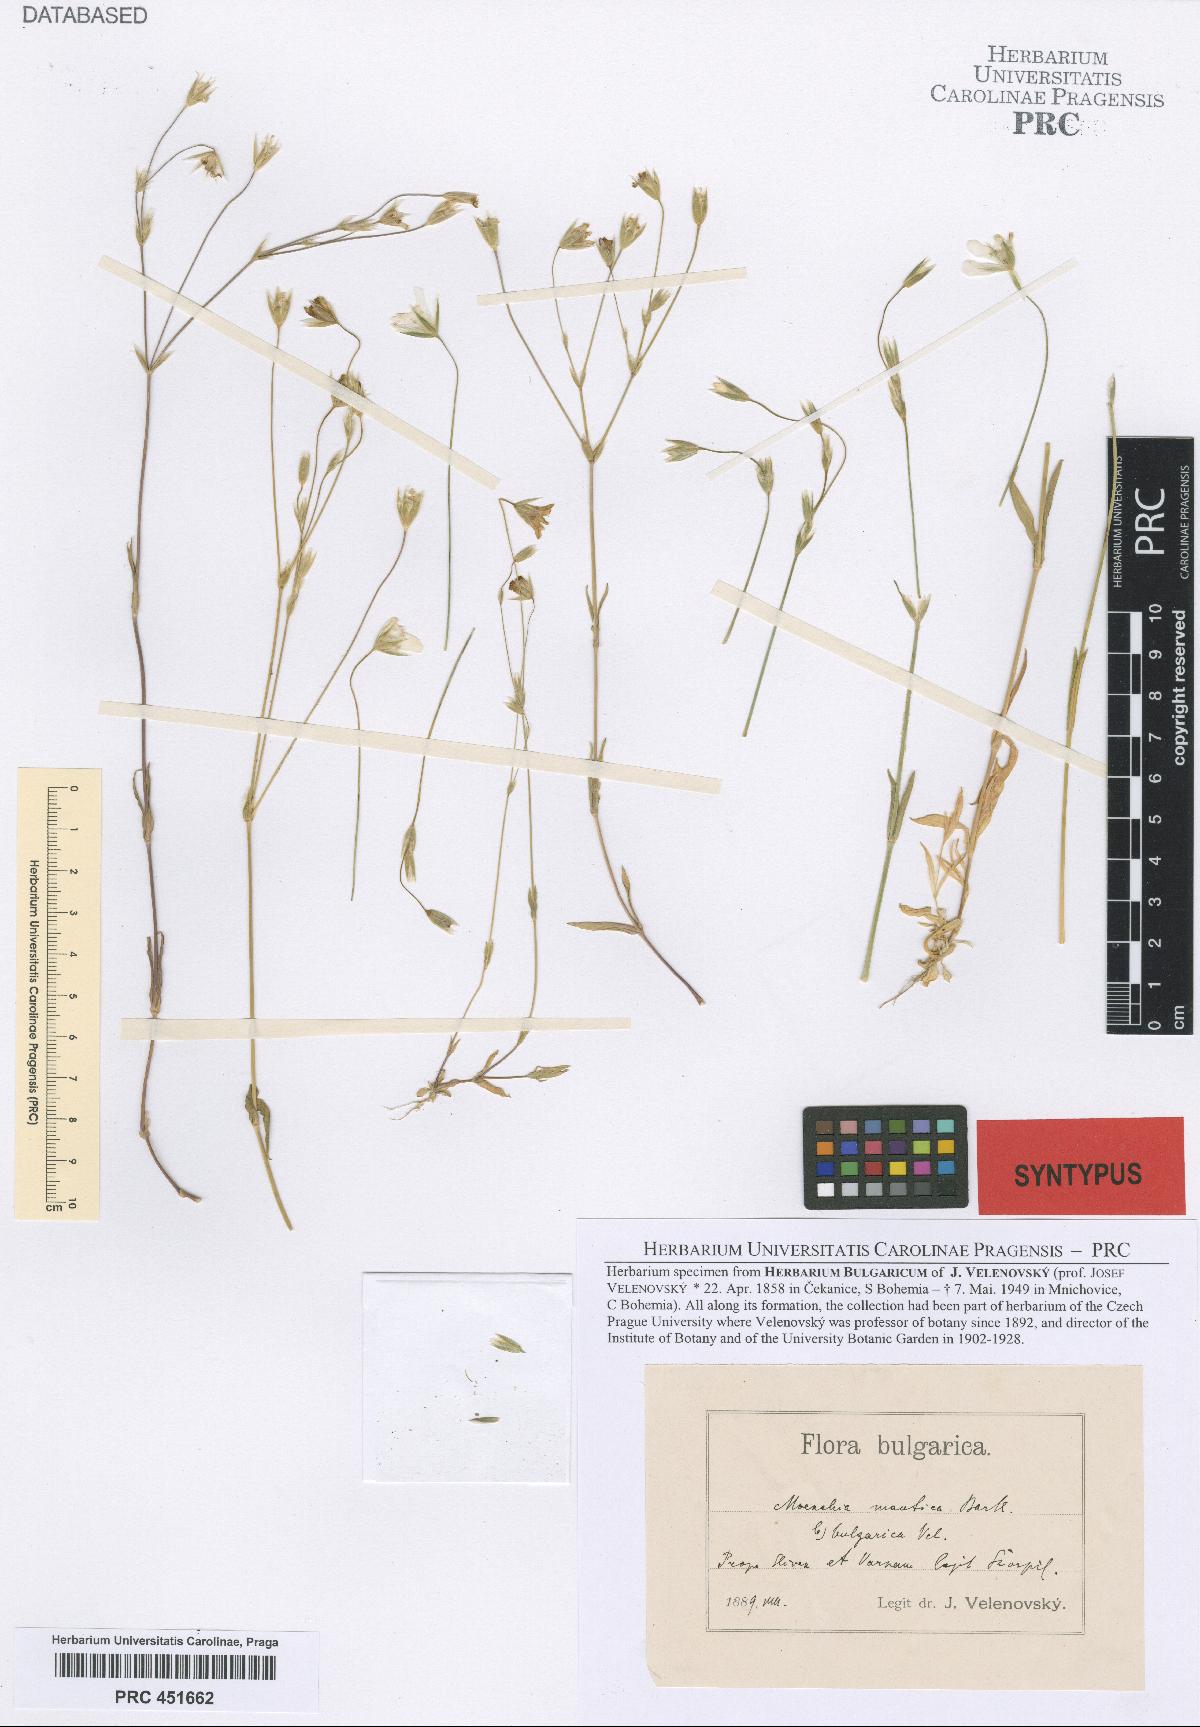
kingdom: Plantae
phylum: Tracheophyta
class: Magnoliopsida
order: Caryophyllales
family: Caryophyllaceae
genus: Moenchia
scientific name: Moenchia mantica
